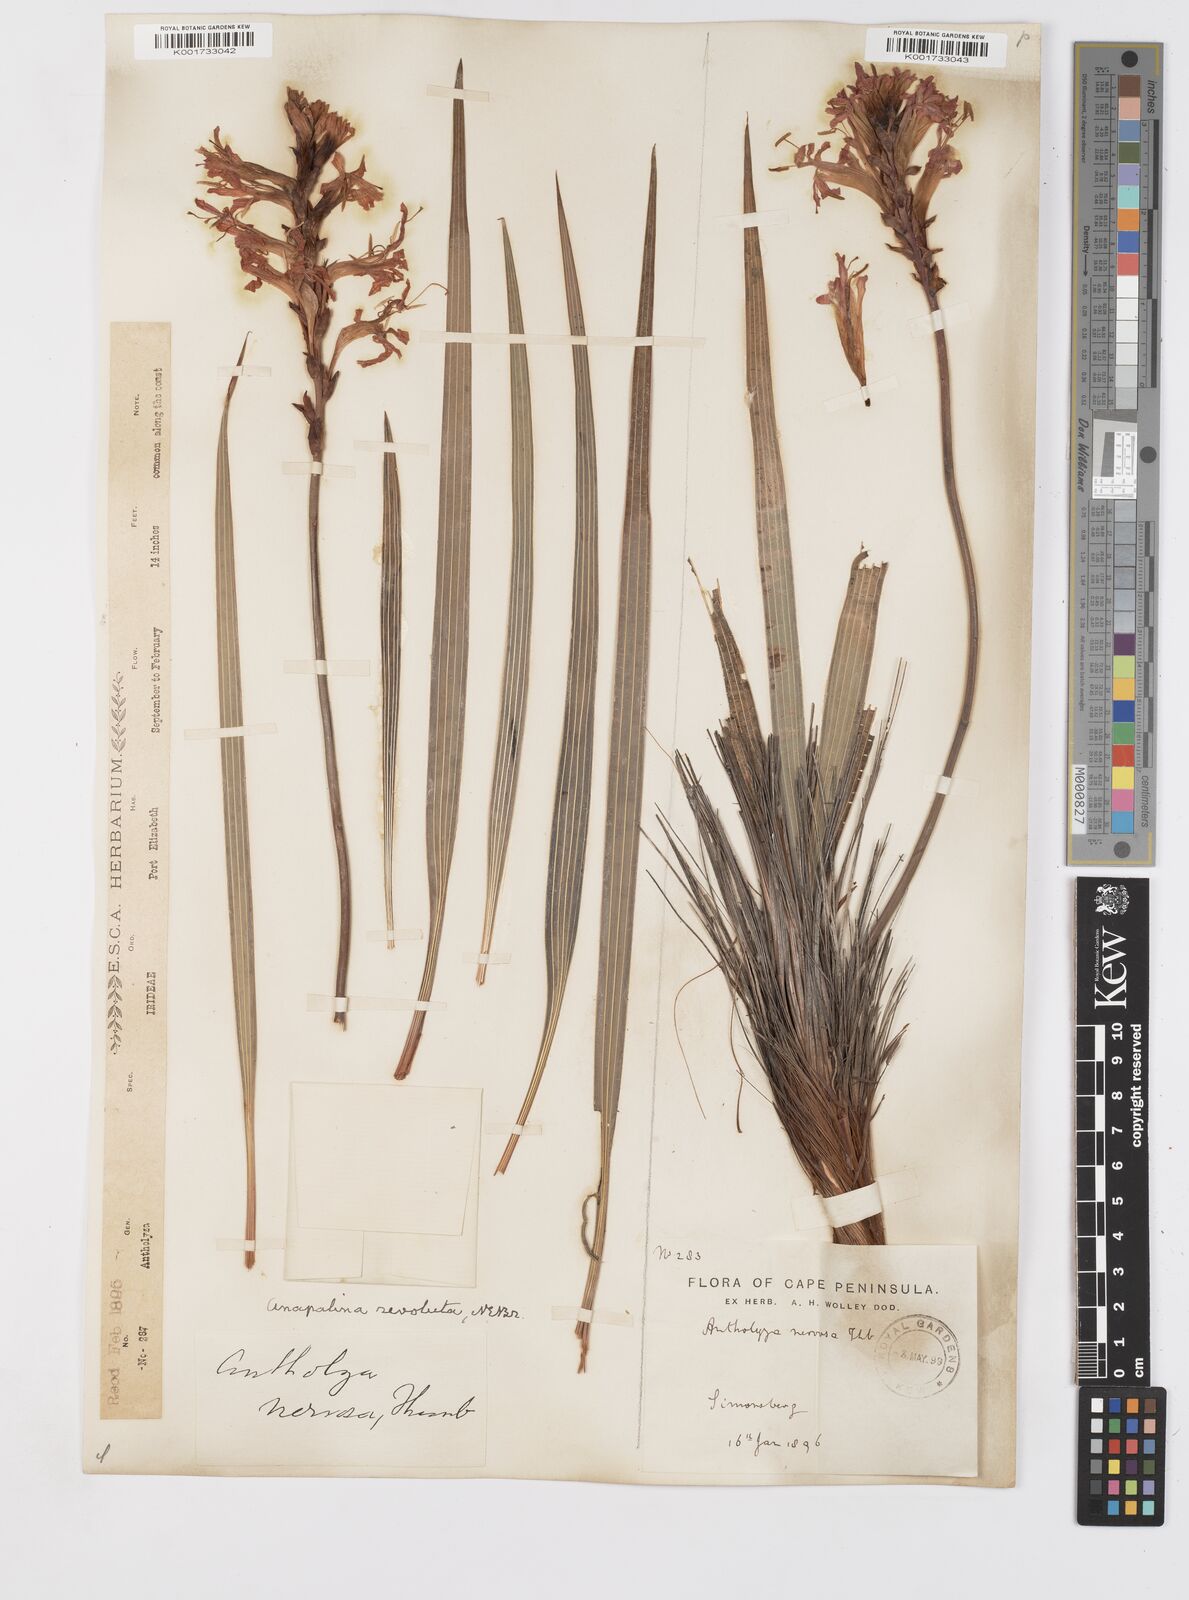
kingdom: Plantae
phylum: Tracheophyta
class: Liliopsida
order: Asparagales
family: Iridaceae
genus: Tritoniopsis
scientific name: Tritoniopsis nervosa
